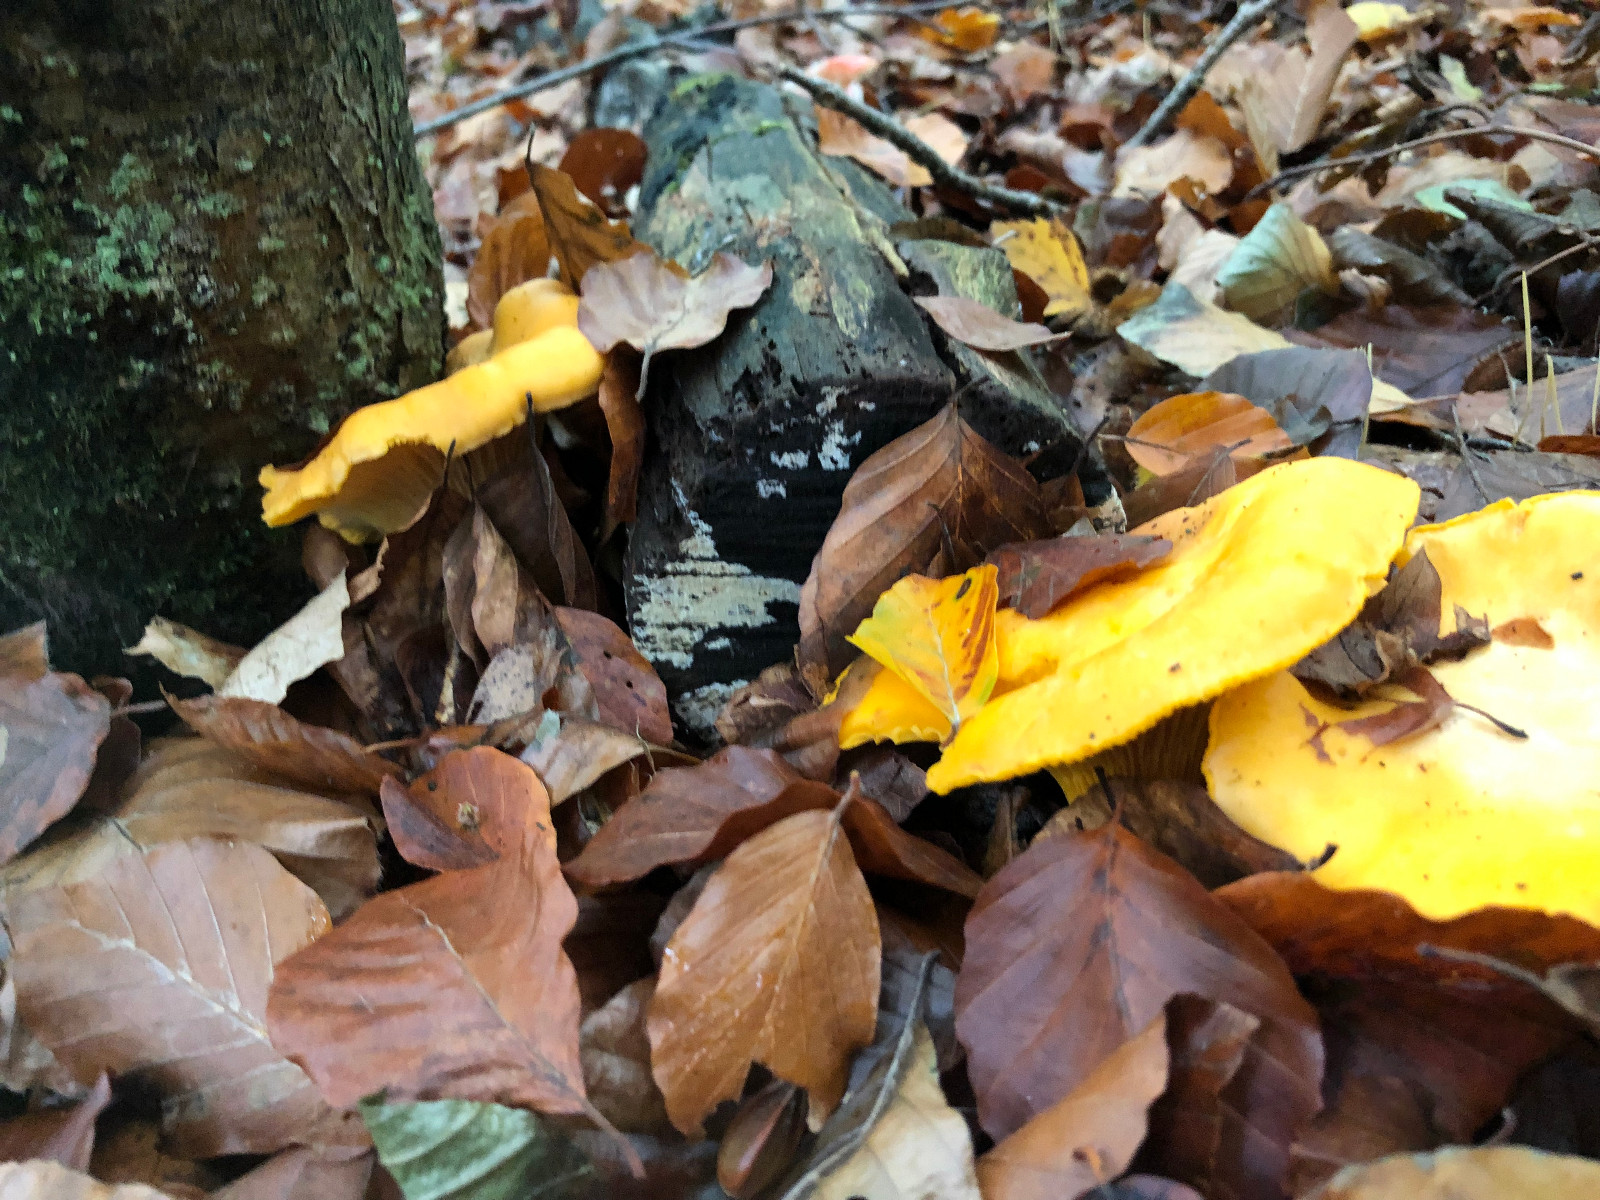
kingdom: Fungi
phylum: Basidiomycota
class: Agaricomycetes
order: Cantharellales
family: Hydnaceae
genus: Cantharellus
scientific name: Cantharellus cibarius
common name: almindelig kantarel
